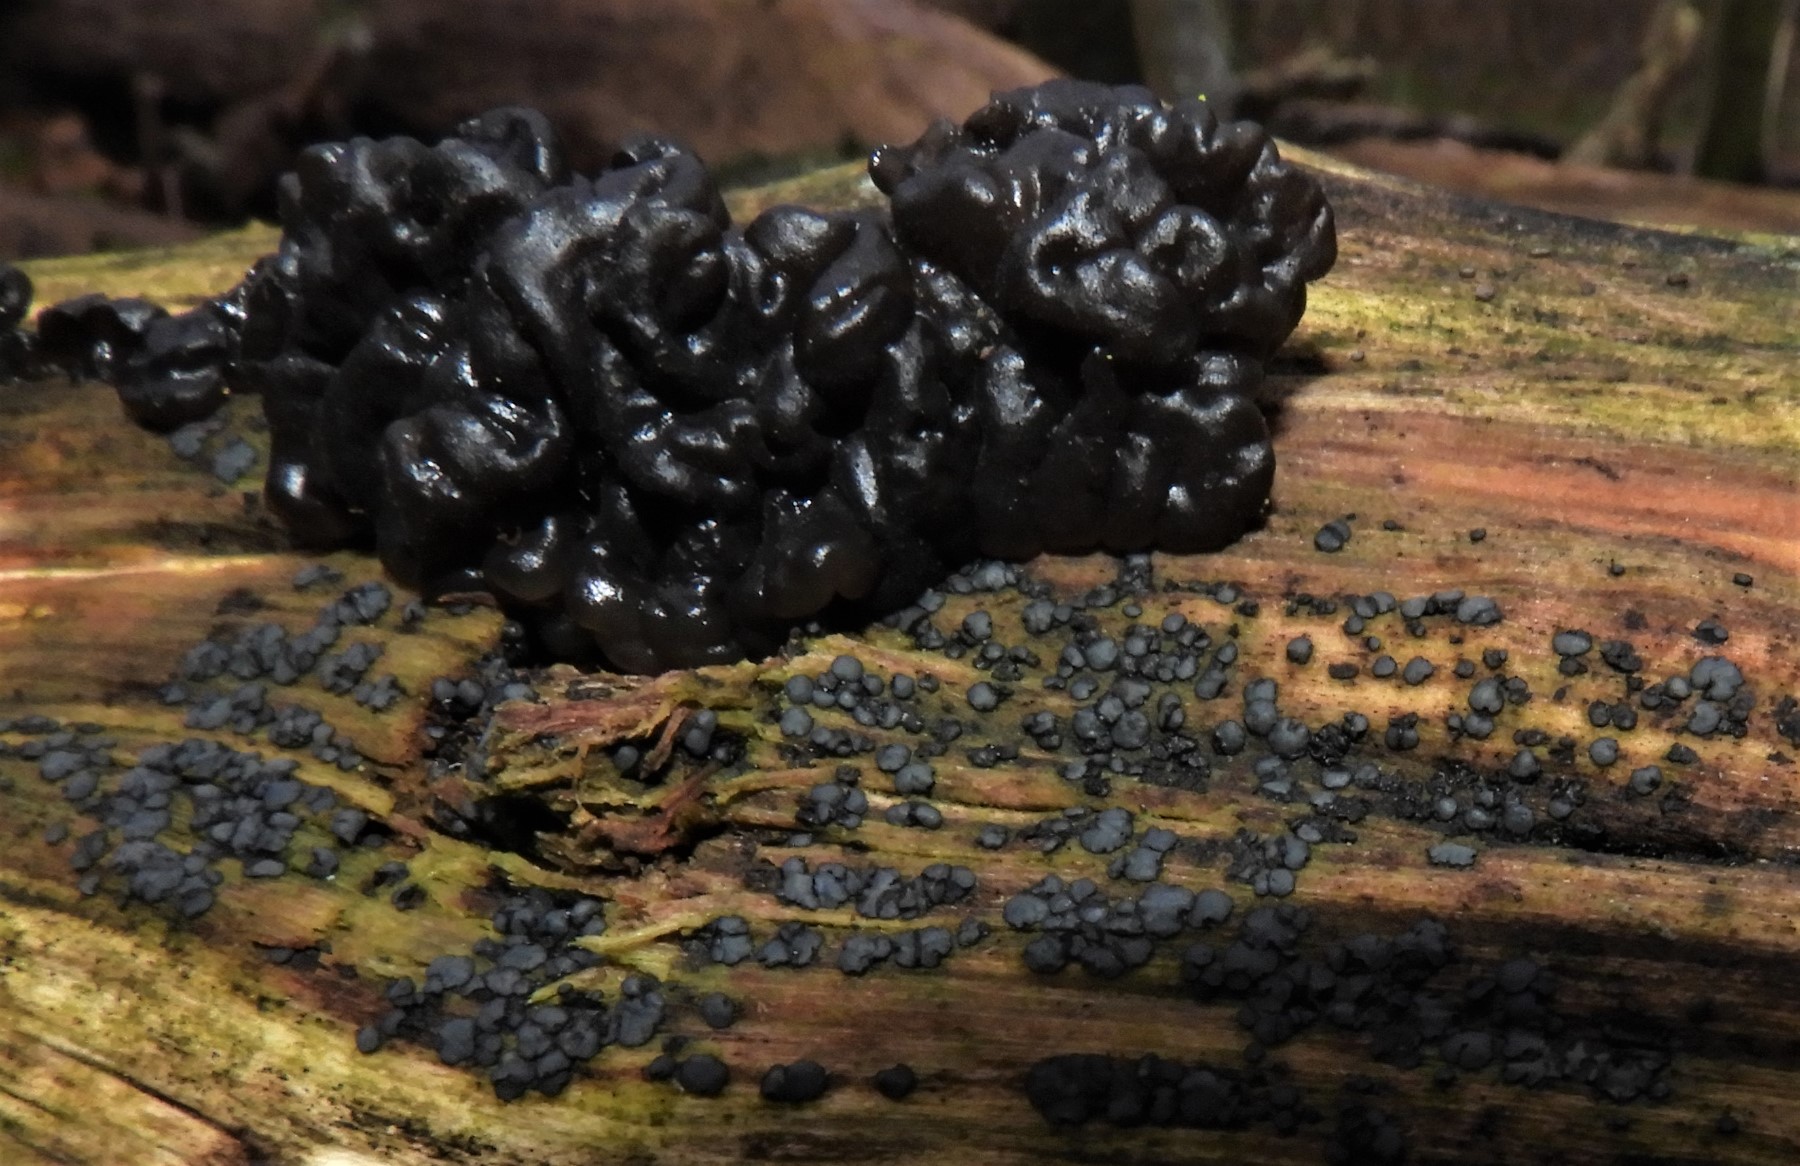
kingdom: Fungi
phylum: Basidiomycota
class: Agaricomycetes
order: Auriculariales
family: Auriculariaceae
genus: Exidia
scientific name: Exidia nigricans
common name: almindelig bævretop
